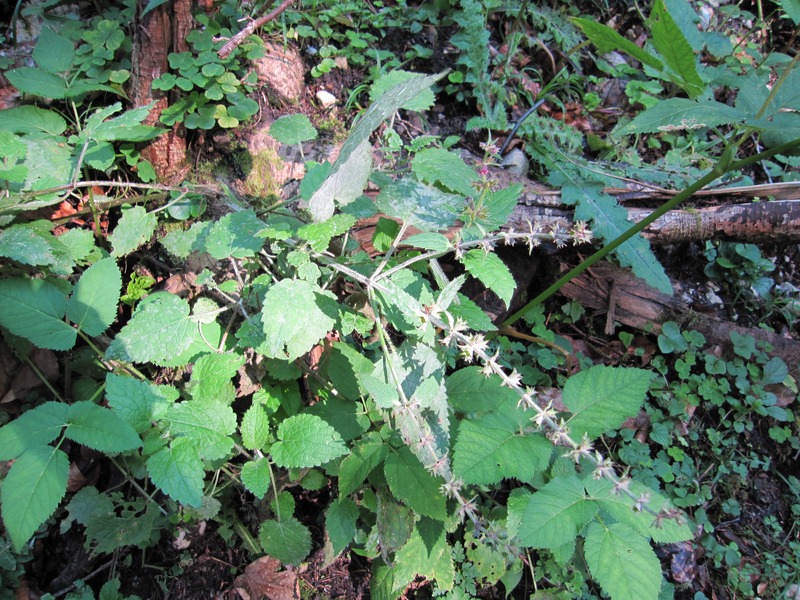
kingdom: Fungi
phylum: Ascomycota
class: Leotiomycetes
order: Helotiales
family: Erysiphaceae
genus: Neoerysiphe
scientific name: Neoerysiphe galeopsidis
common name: Mint mildew
